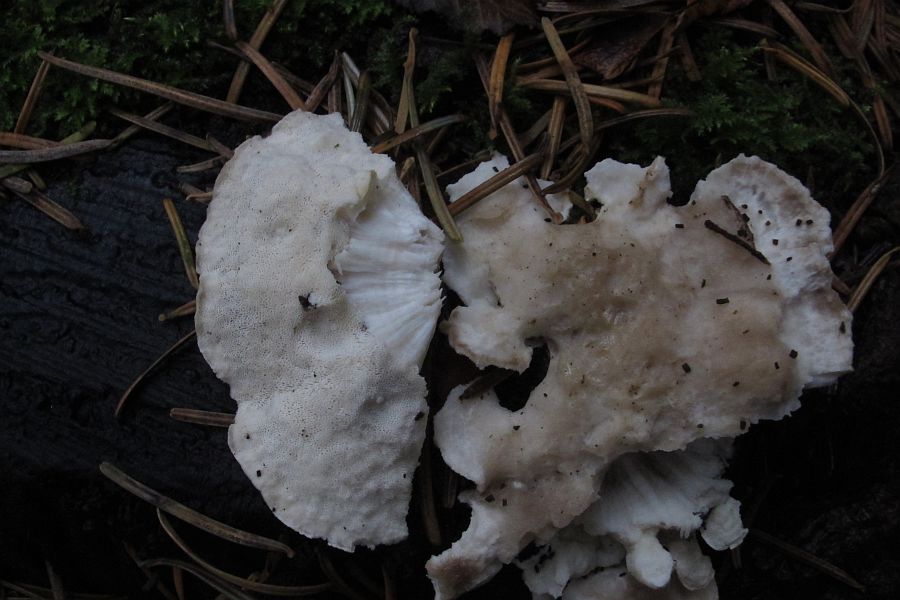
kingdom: Fungi
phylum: Basidiomycota
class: Agaricomycetes
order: Polyporales
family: Incrustoporiaceae
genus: Tyromyces
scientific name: Tyromyces lacteus
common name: mælkehvid kødporesvamp
